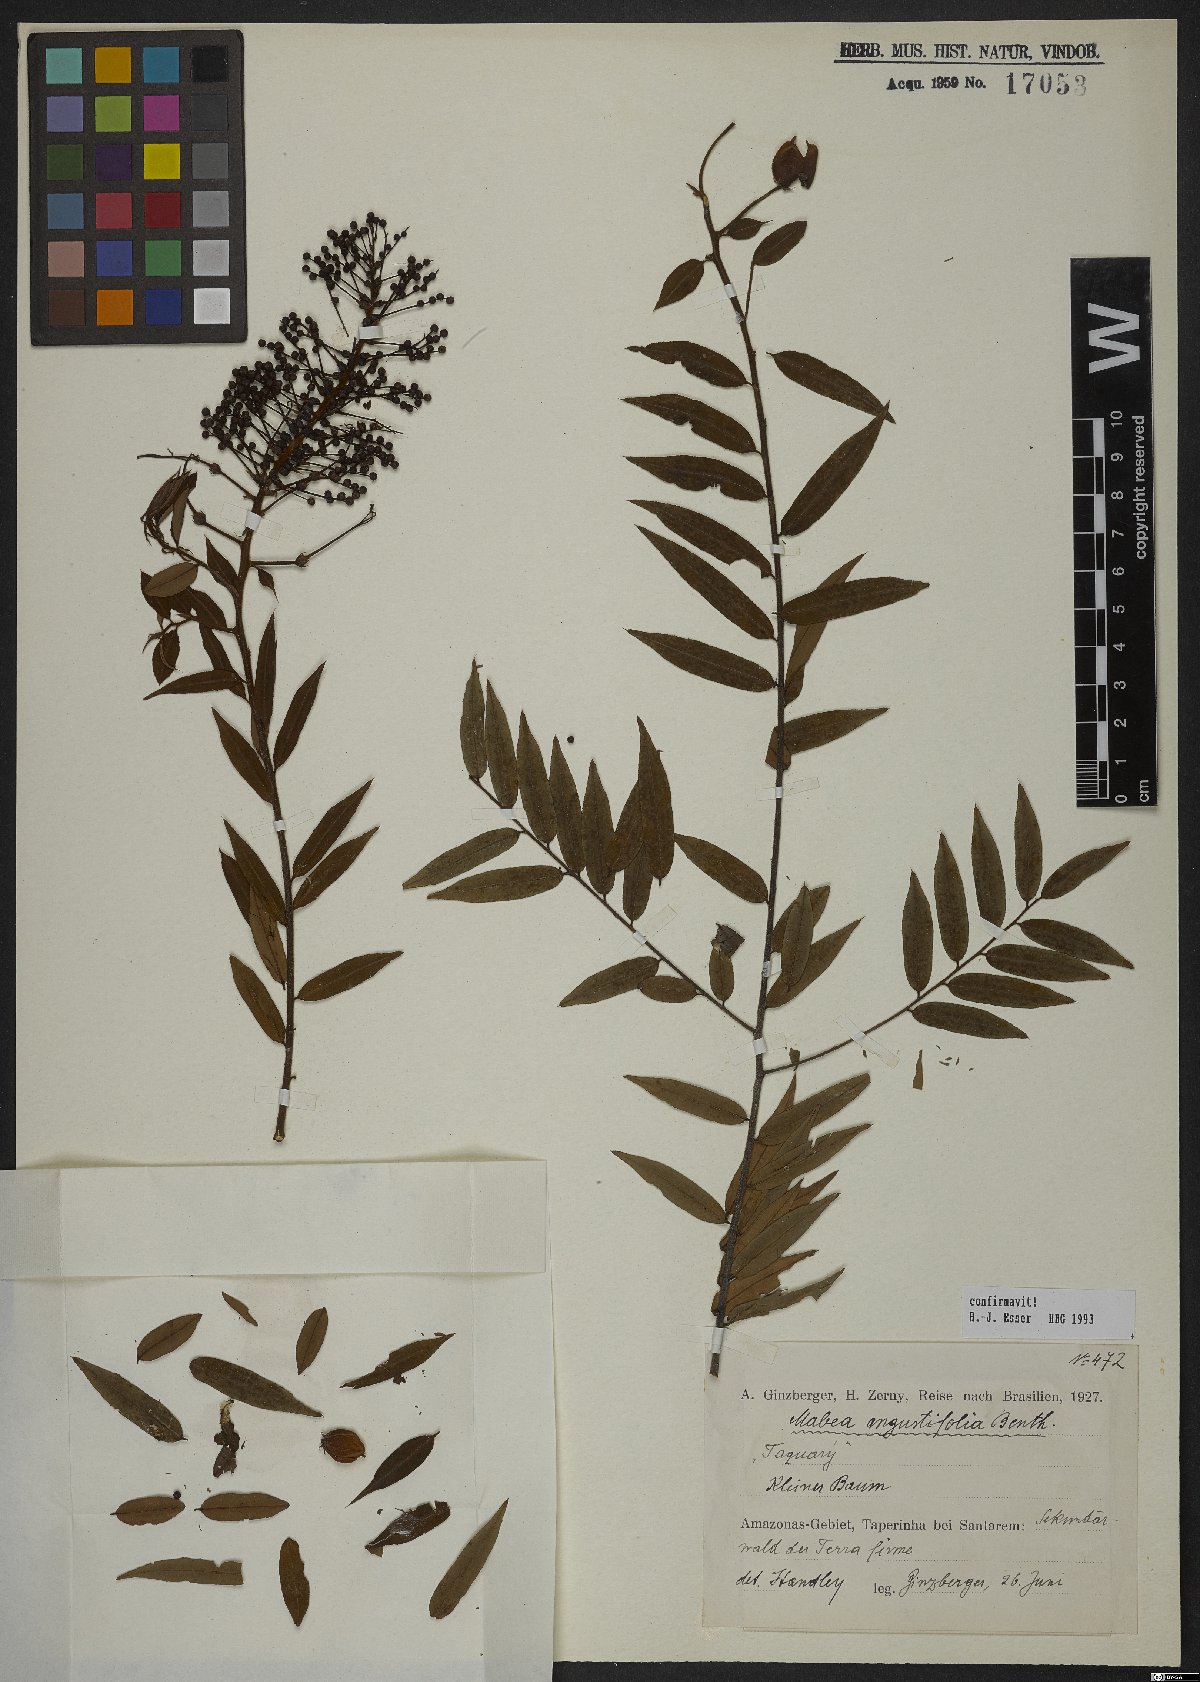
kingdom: Plantae
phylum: Tracheophyta
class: Magnoliopsida
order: Malpighiales
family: Euphorbiaceae
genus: Mabea
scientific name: Mabea angustifolia
